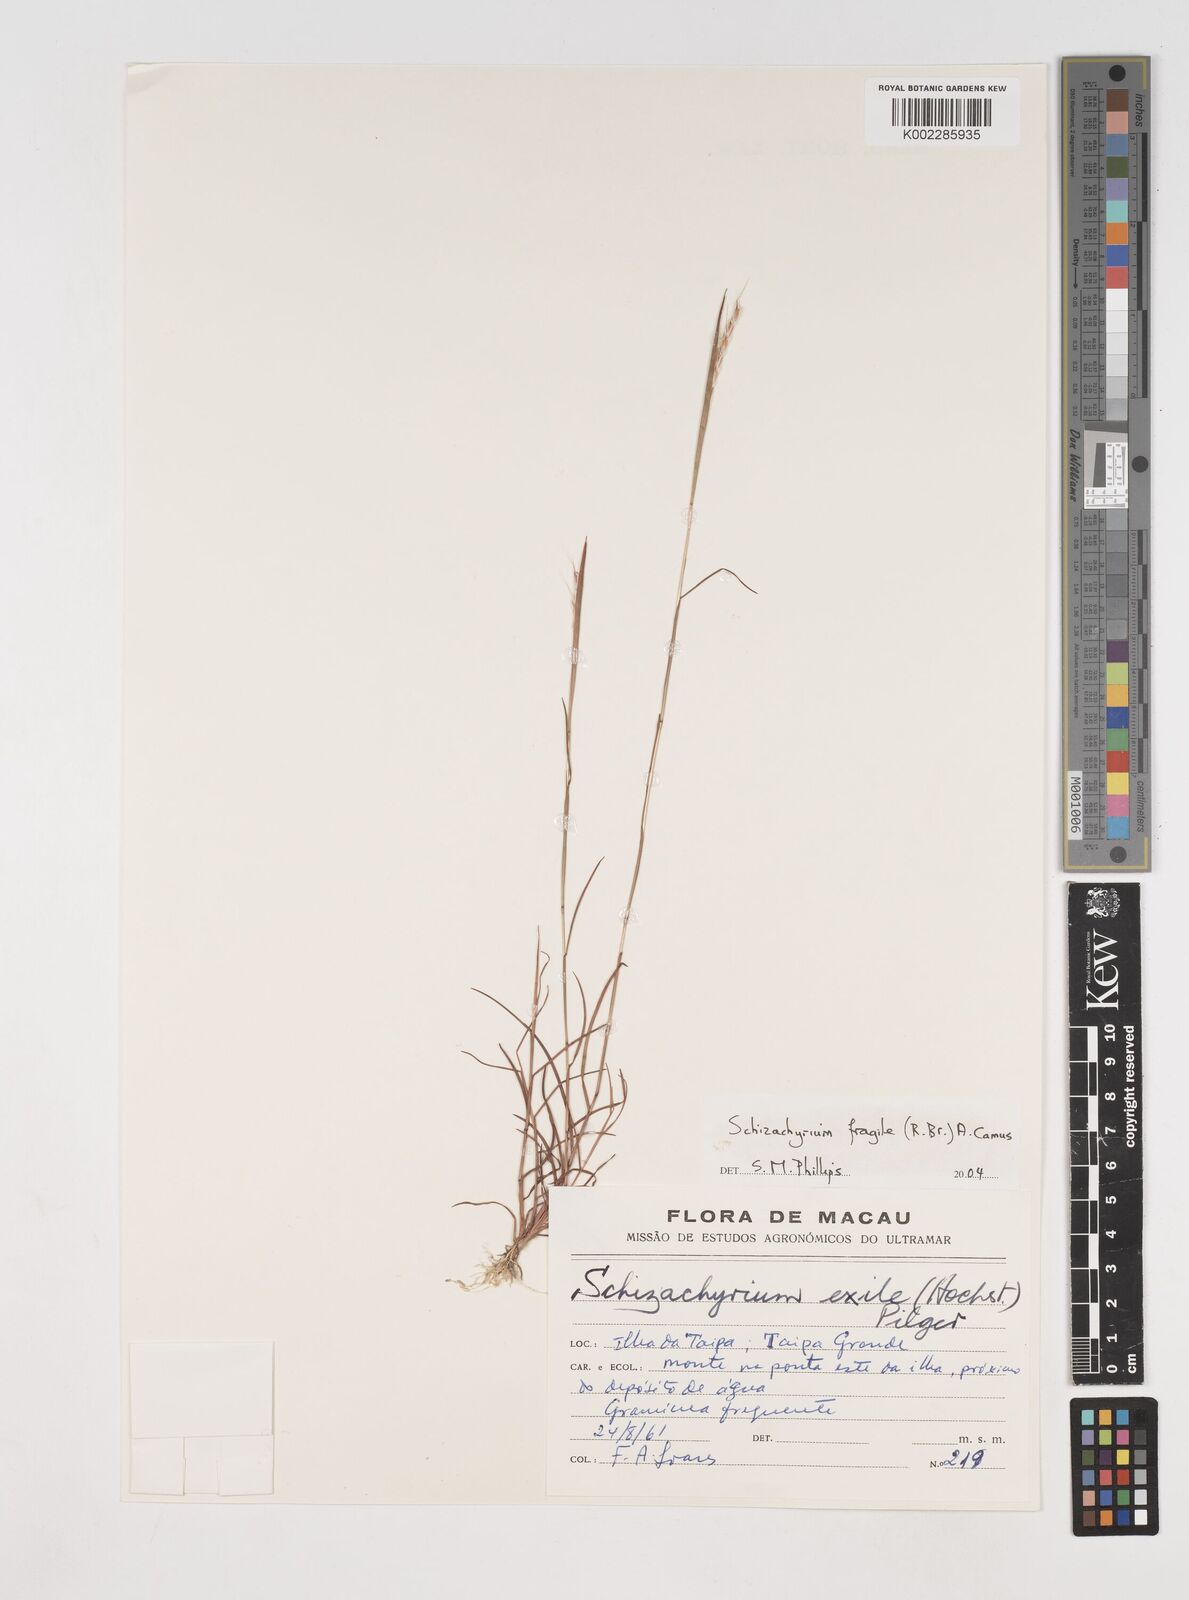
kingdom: Plantae
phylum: Tracheophyta
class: Liliopsida
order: Poales
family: Poaceae
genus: Schizachyrium
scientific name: Schizachyrium fragile
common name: Red spathe grass
